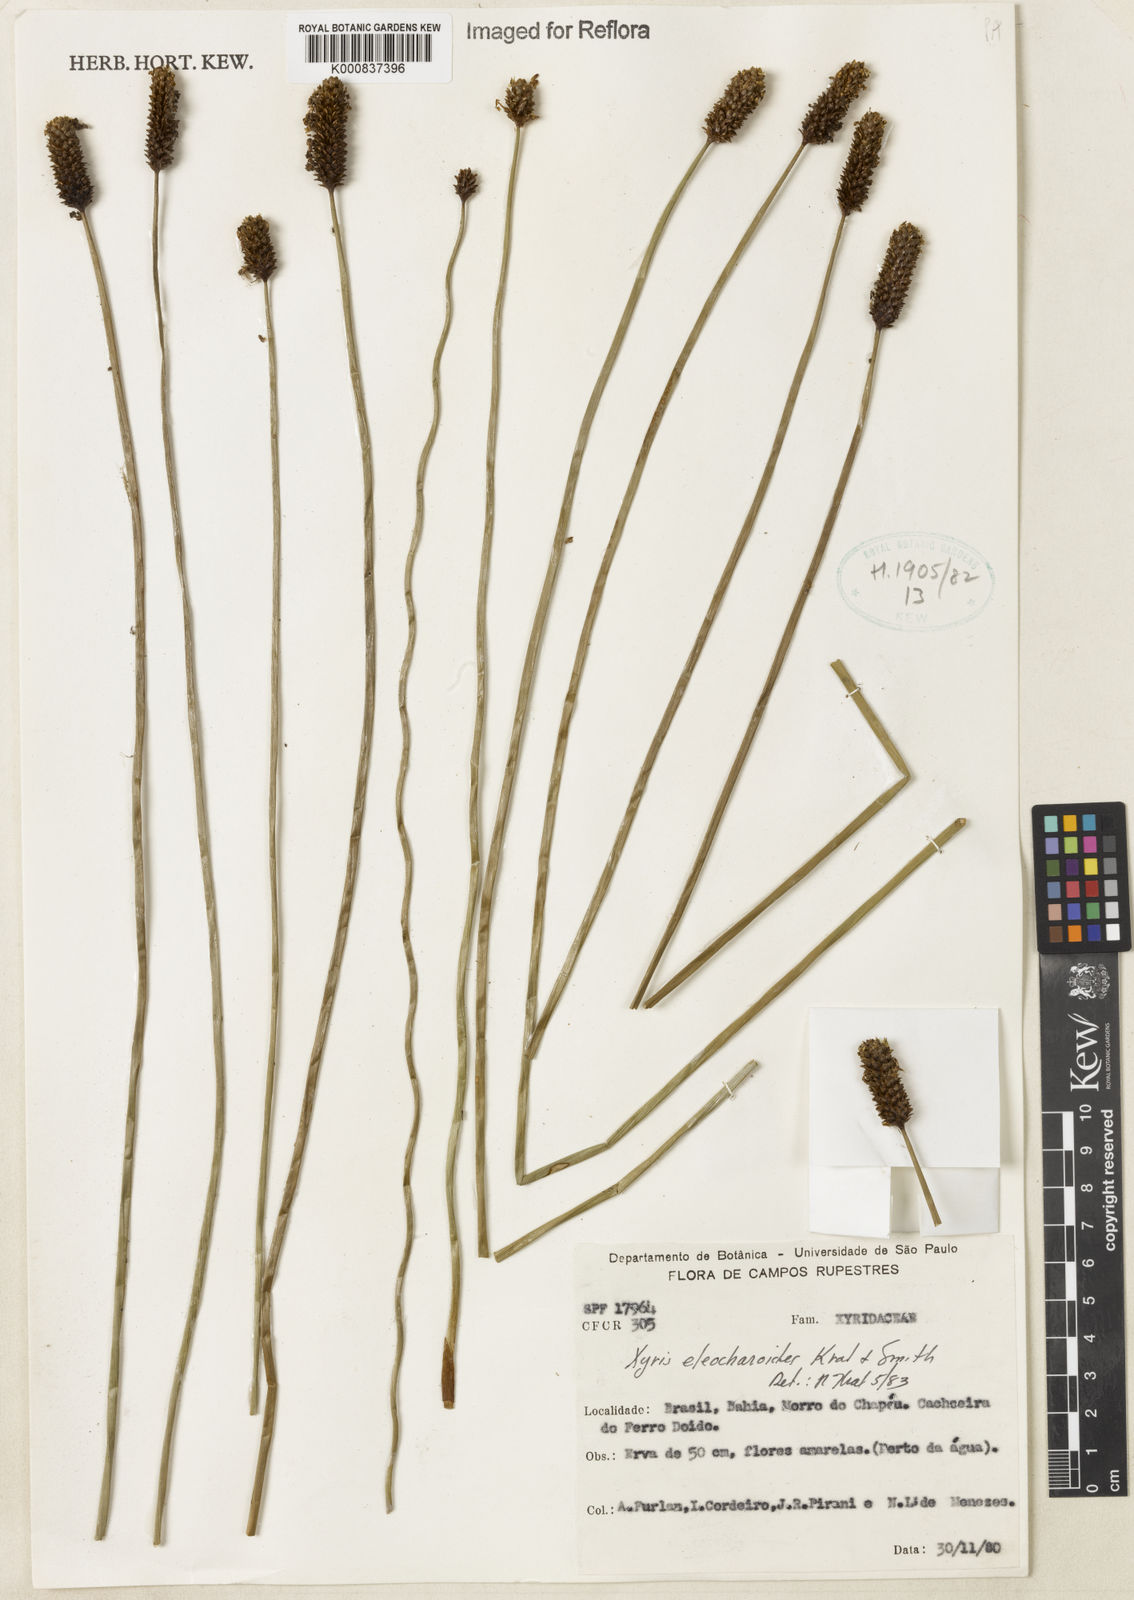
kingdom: Plantae
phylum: Tracheophyta
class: Liliopsida
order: Poales
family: Xyridaceae
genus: Xyris
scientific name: Xyris eleocharoides
